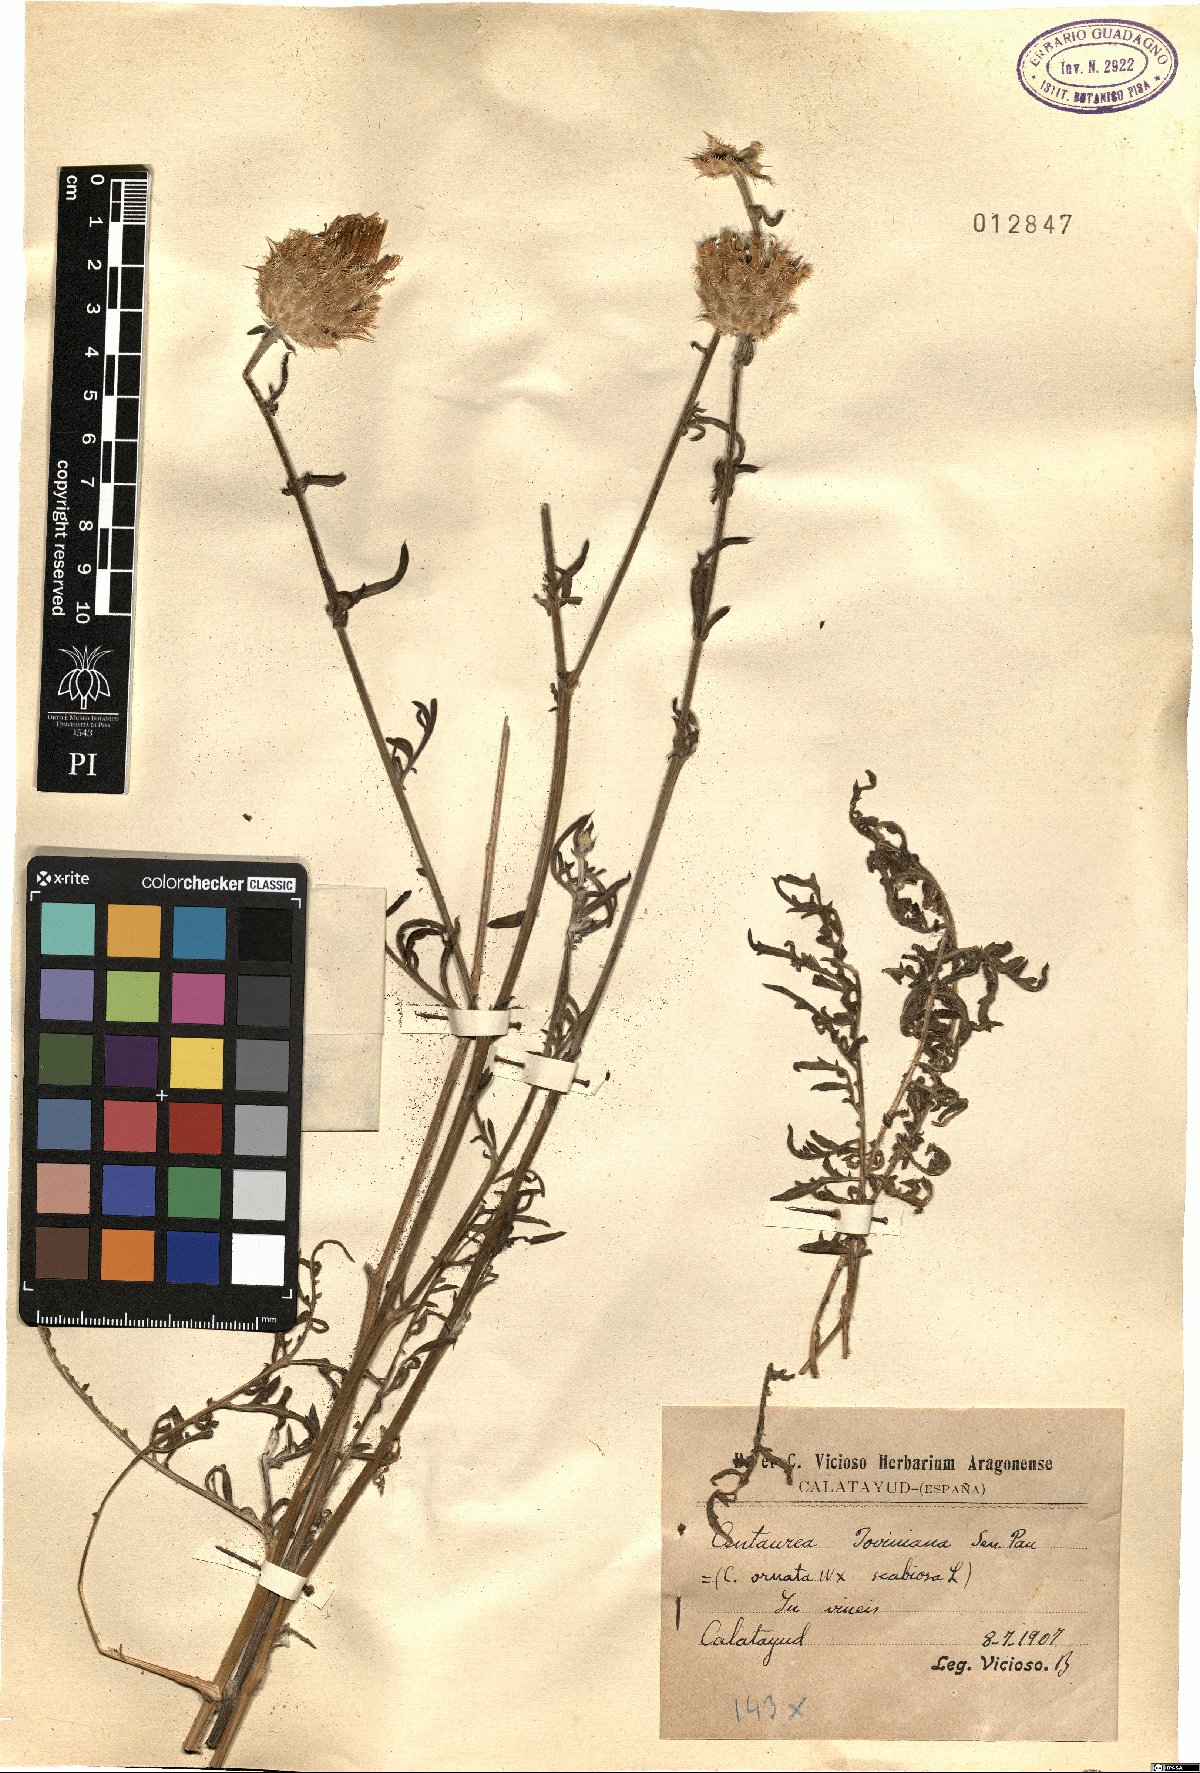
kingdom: Plantae
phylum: Tracheophyta
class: Magnoliopsida
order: Asterales
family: Asteraceae
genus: Centaurea
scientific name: Centaurea polymorpha
